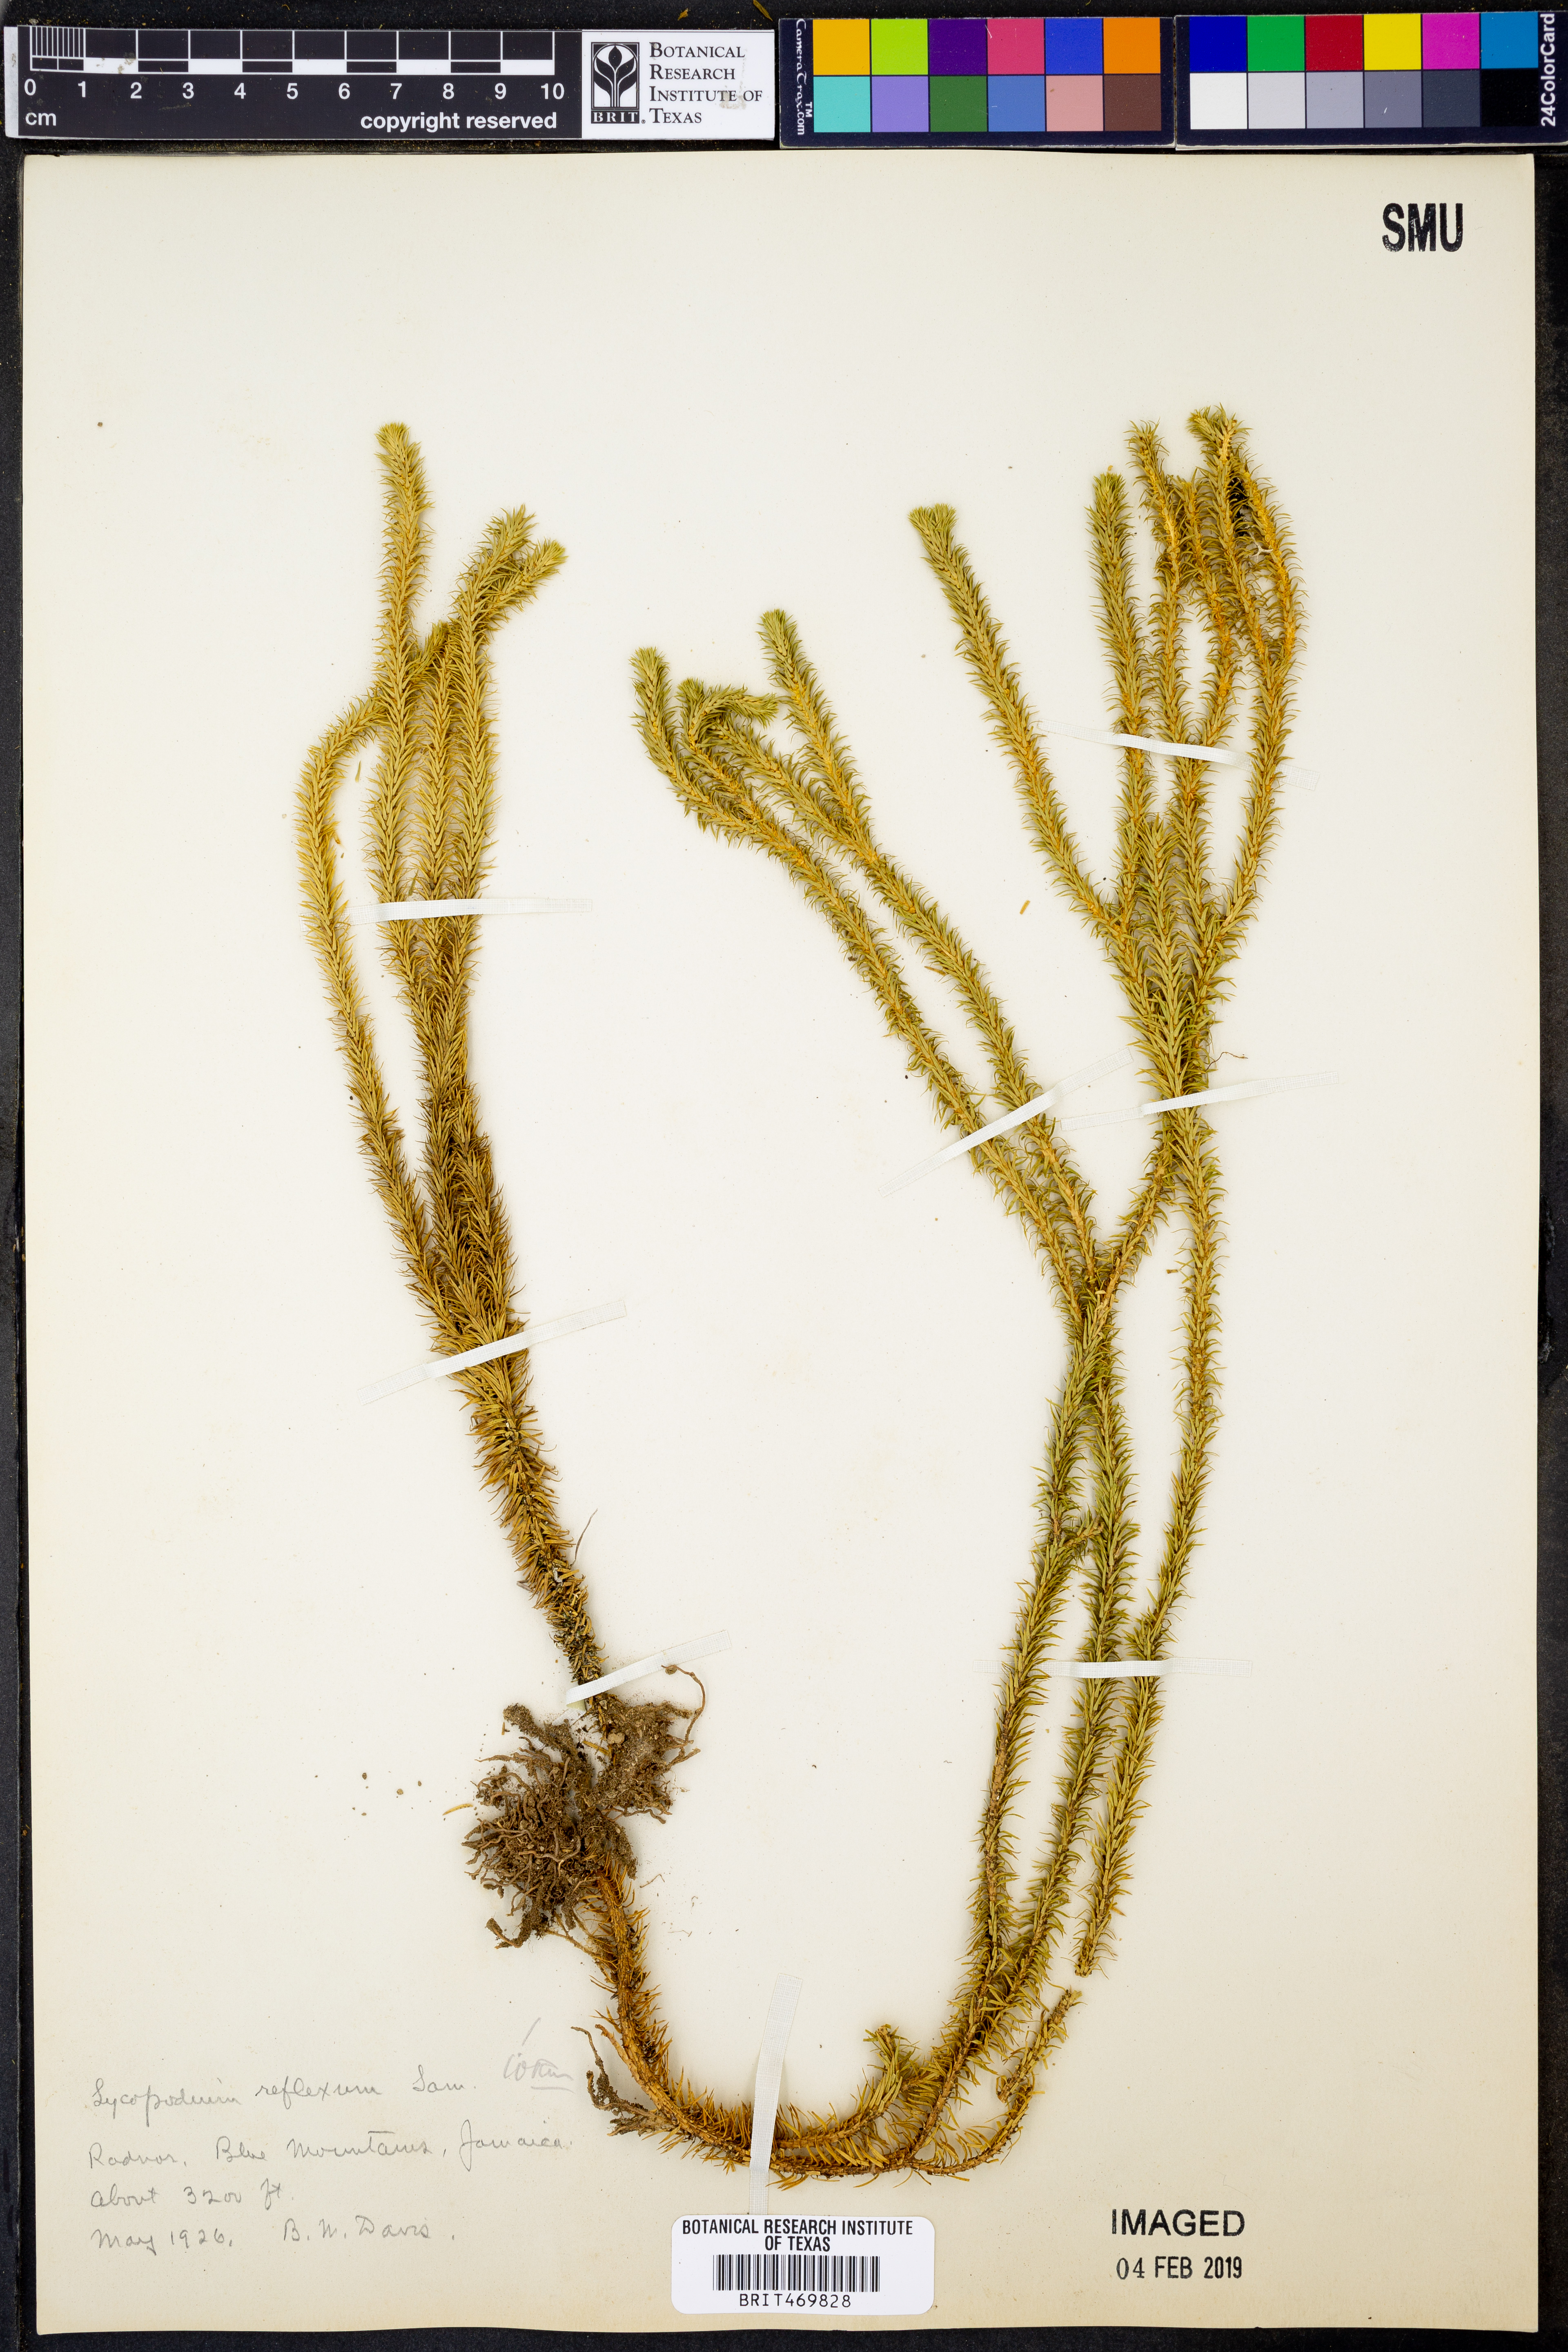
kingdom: Plantae
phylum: Tracheophyta
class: Lycopodiopsida
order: Lycopodiales
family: Lycopodiaceae
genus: Phlegmariurus
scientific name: Phlegmariurus reflexus
